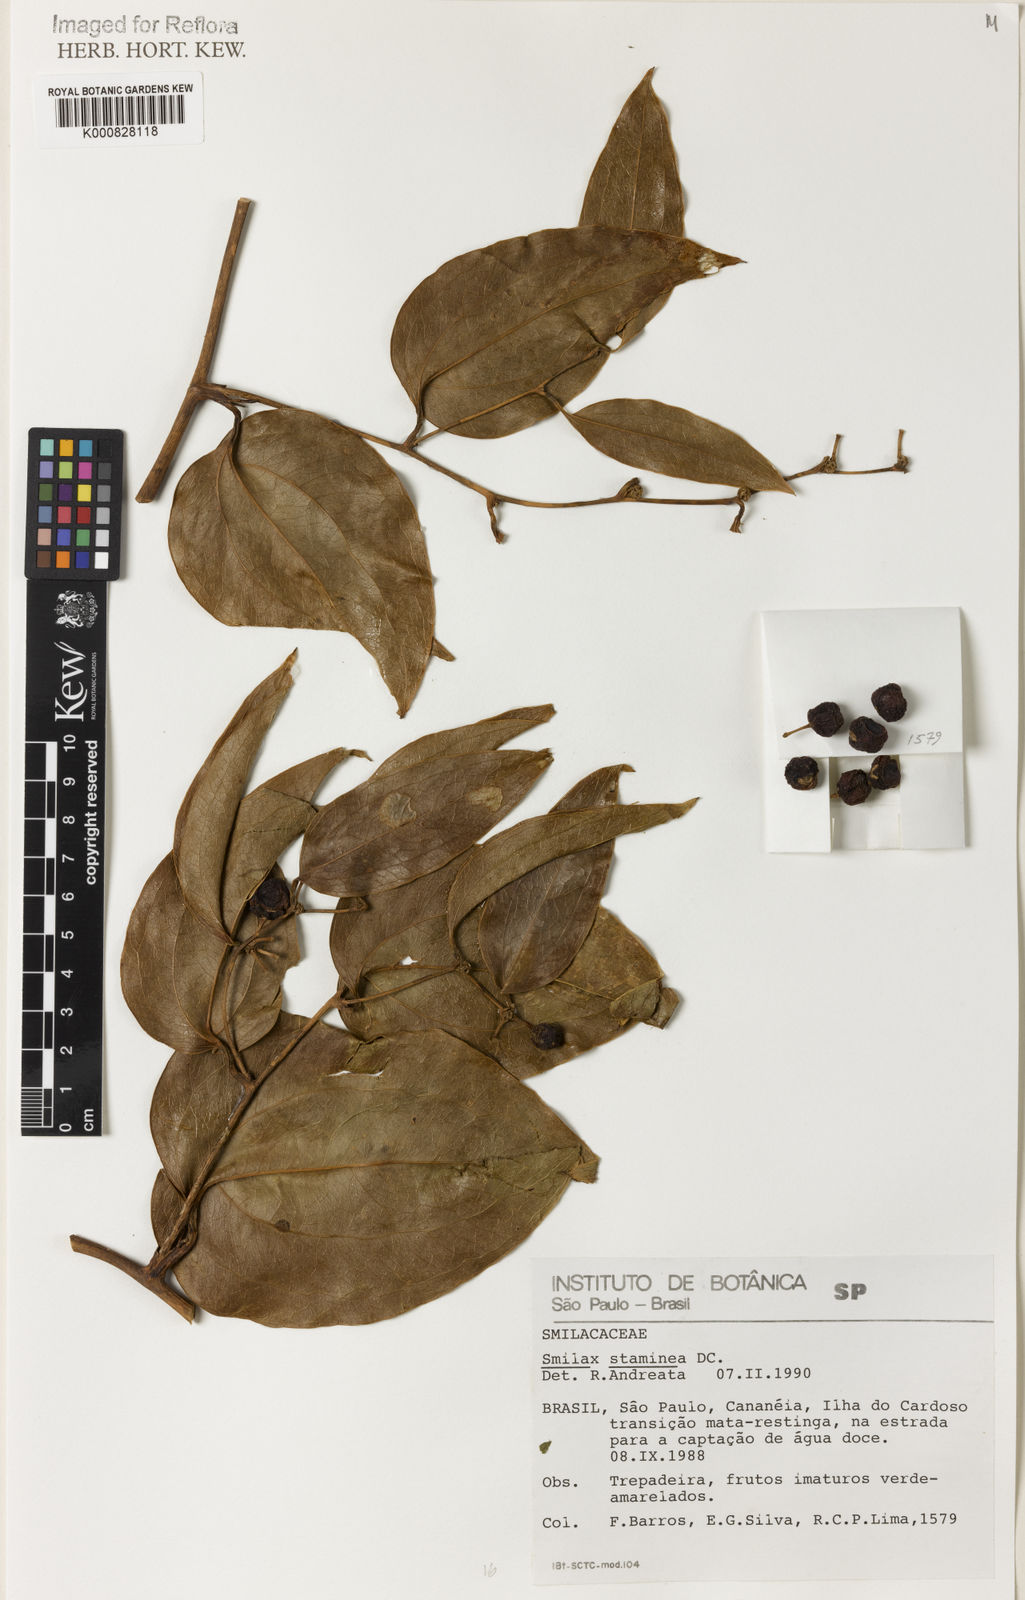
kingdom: Plantae
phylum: Tracheophyta
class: Liliopsida
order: Liliales
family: Smilacaceae
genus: Smilax
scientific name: Smilax domingensis
